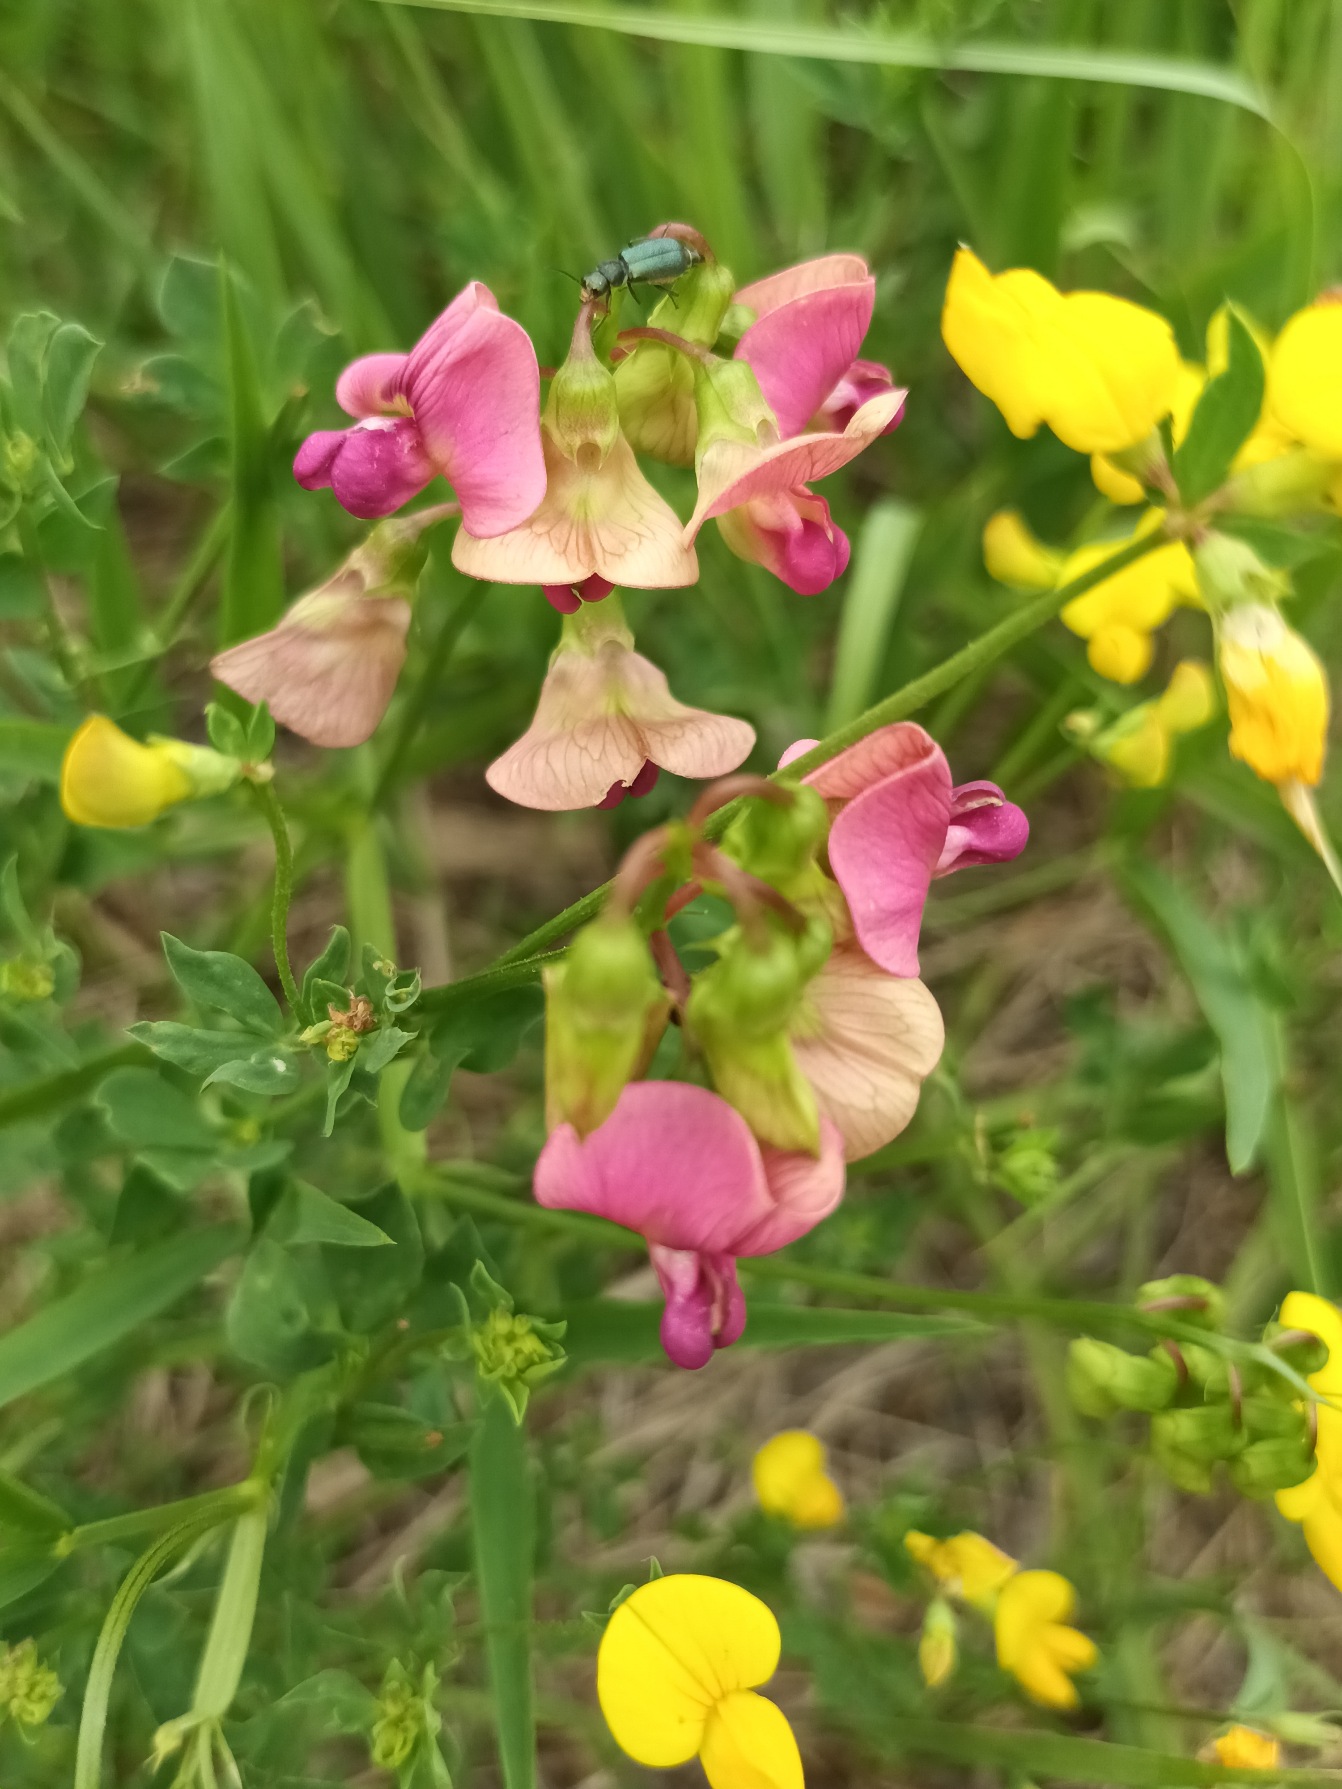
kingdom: Plantae
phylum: Tracheophyta
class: Magnoliopsida
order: Fabales
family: Fabaceae
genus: Lathyrus
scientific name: Lathyrus sylvestris
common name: Skov-fladbælg
